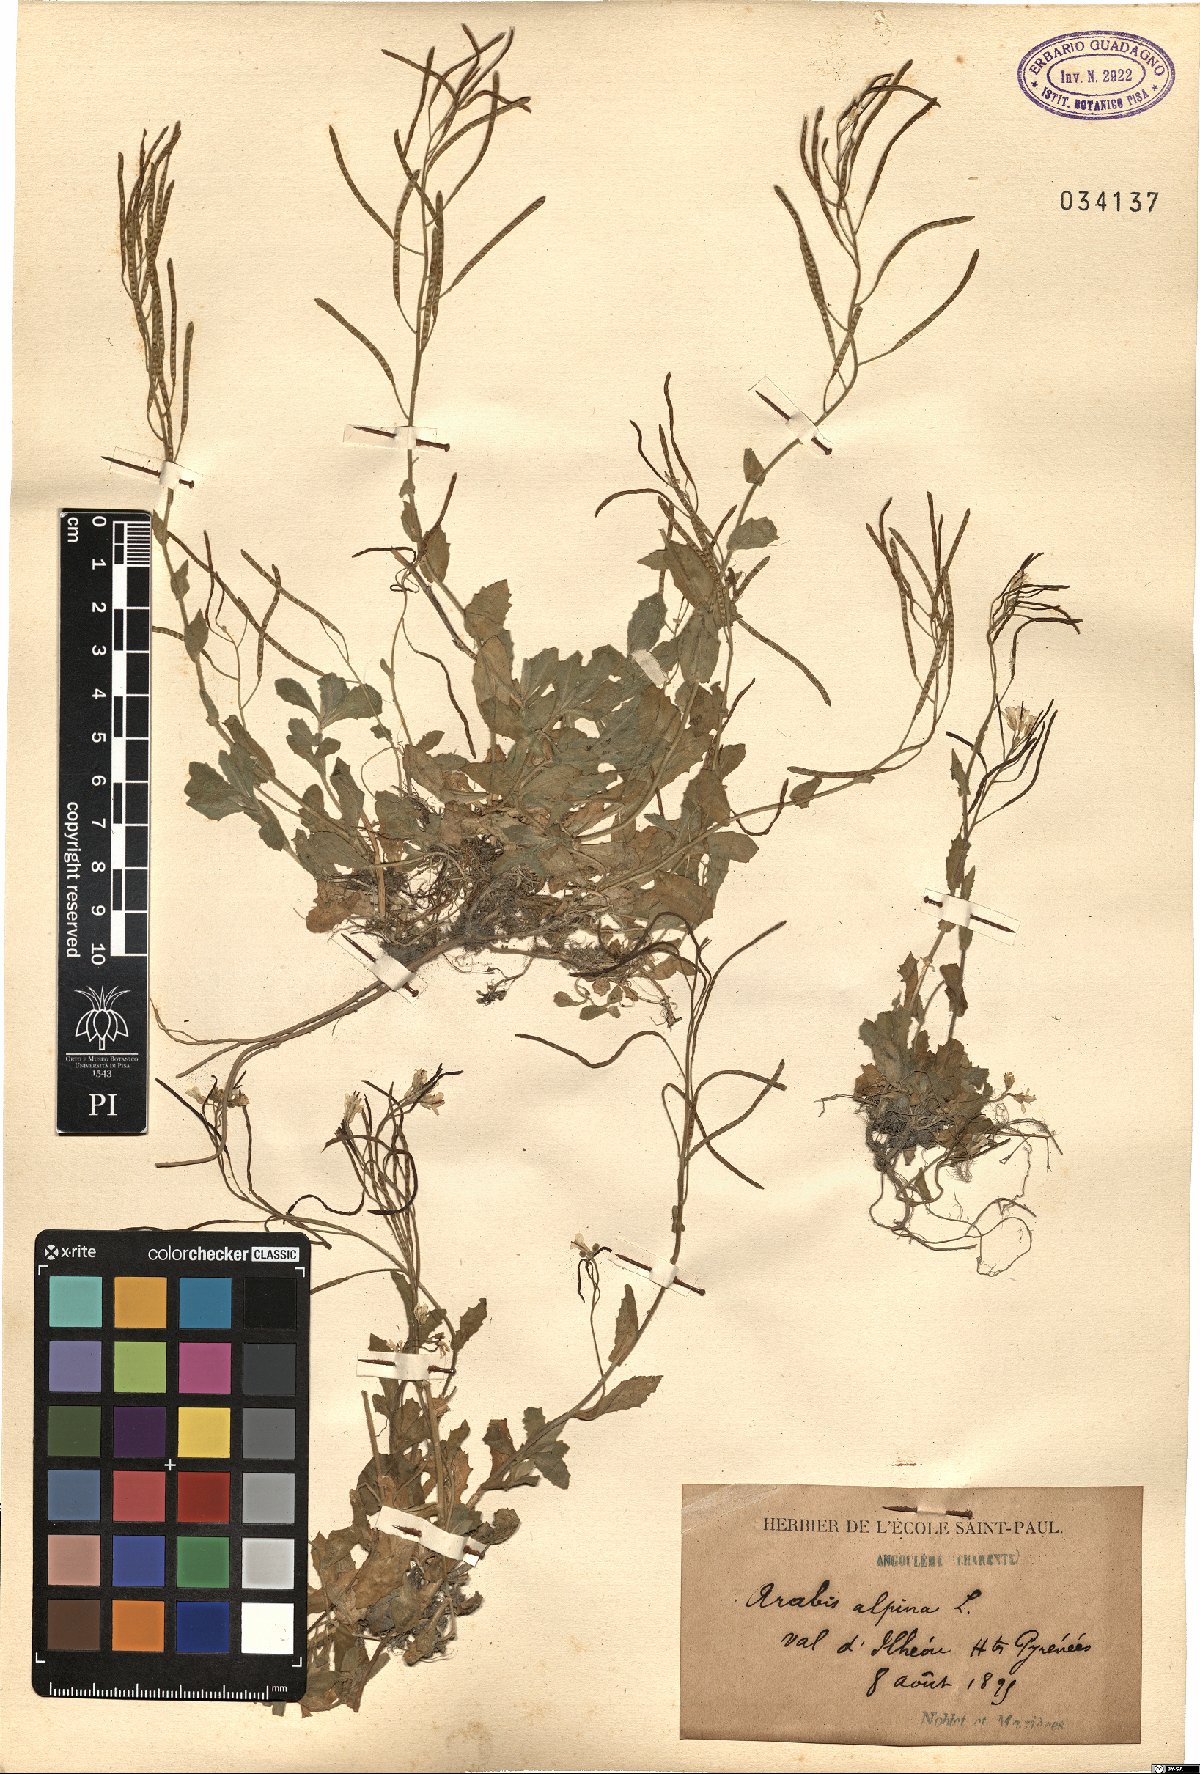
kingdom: Plantae
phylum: Tracheophyta
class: Magnoliopsida
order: Brassicales
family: Brassicaceae
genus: Arabis
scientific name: Arabis alpina
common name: Alpine rock-cress
